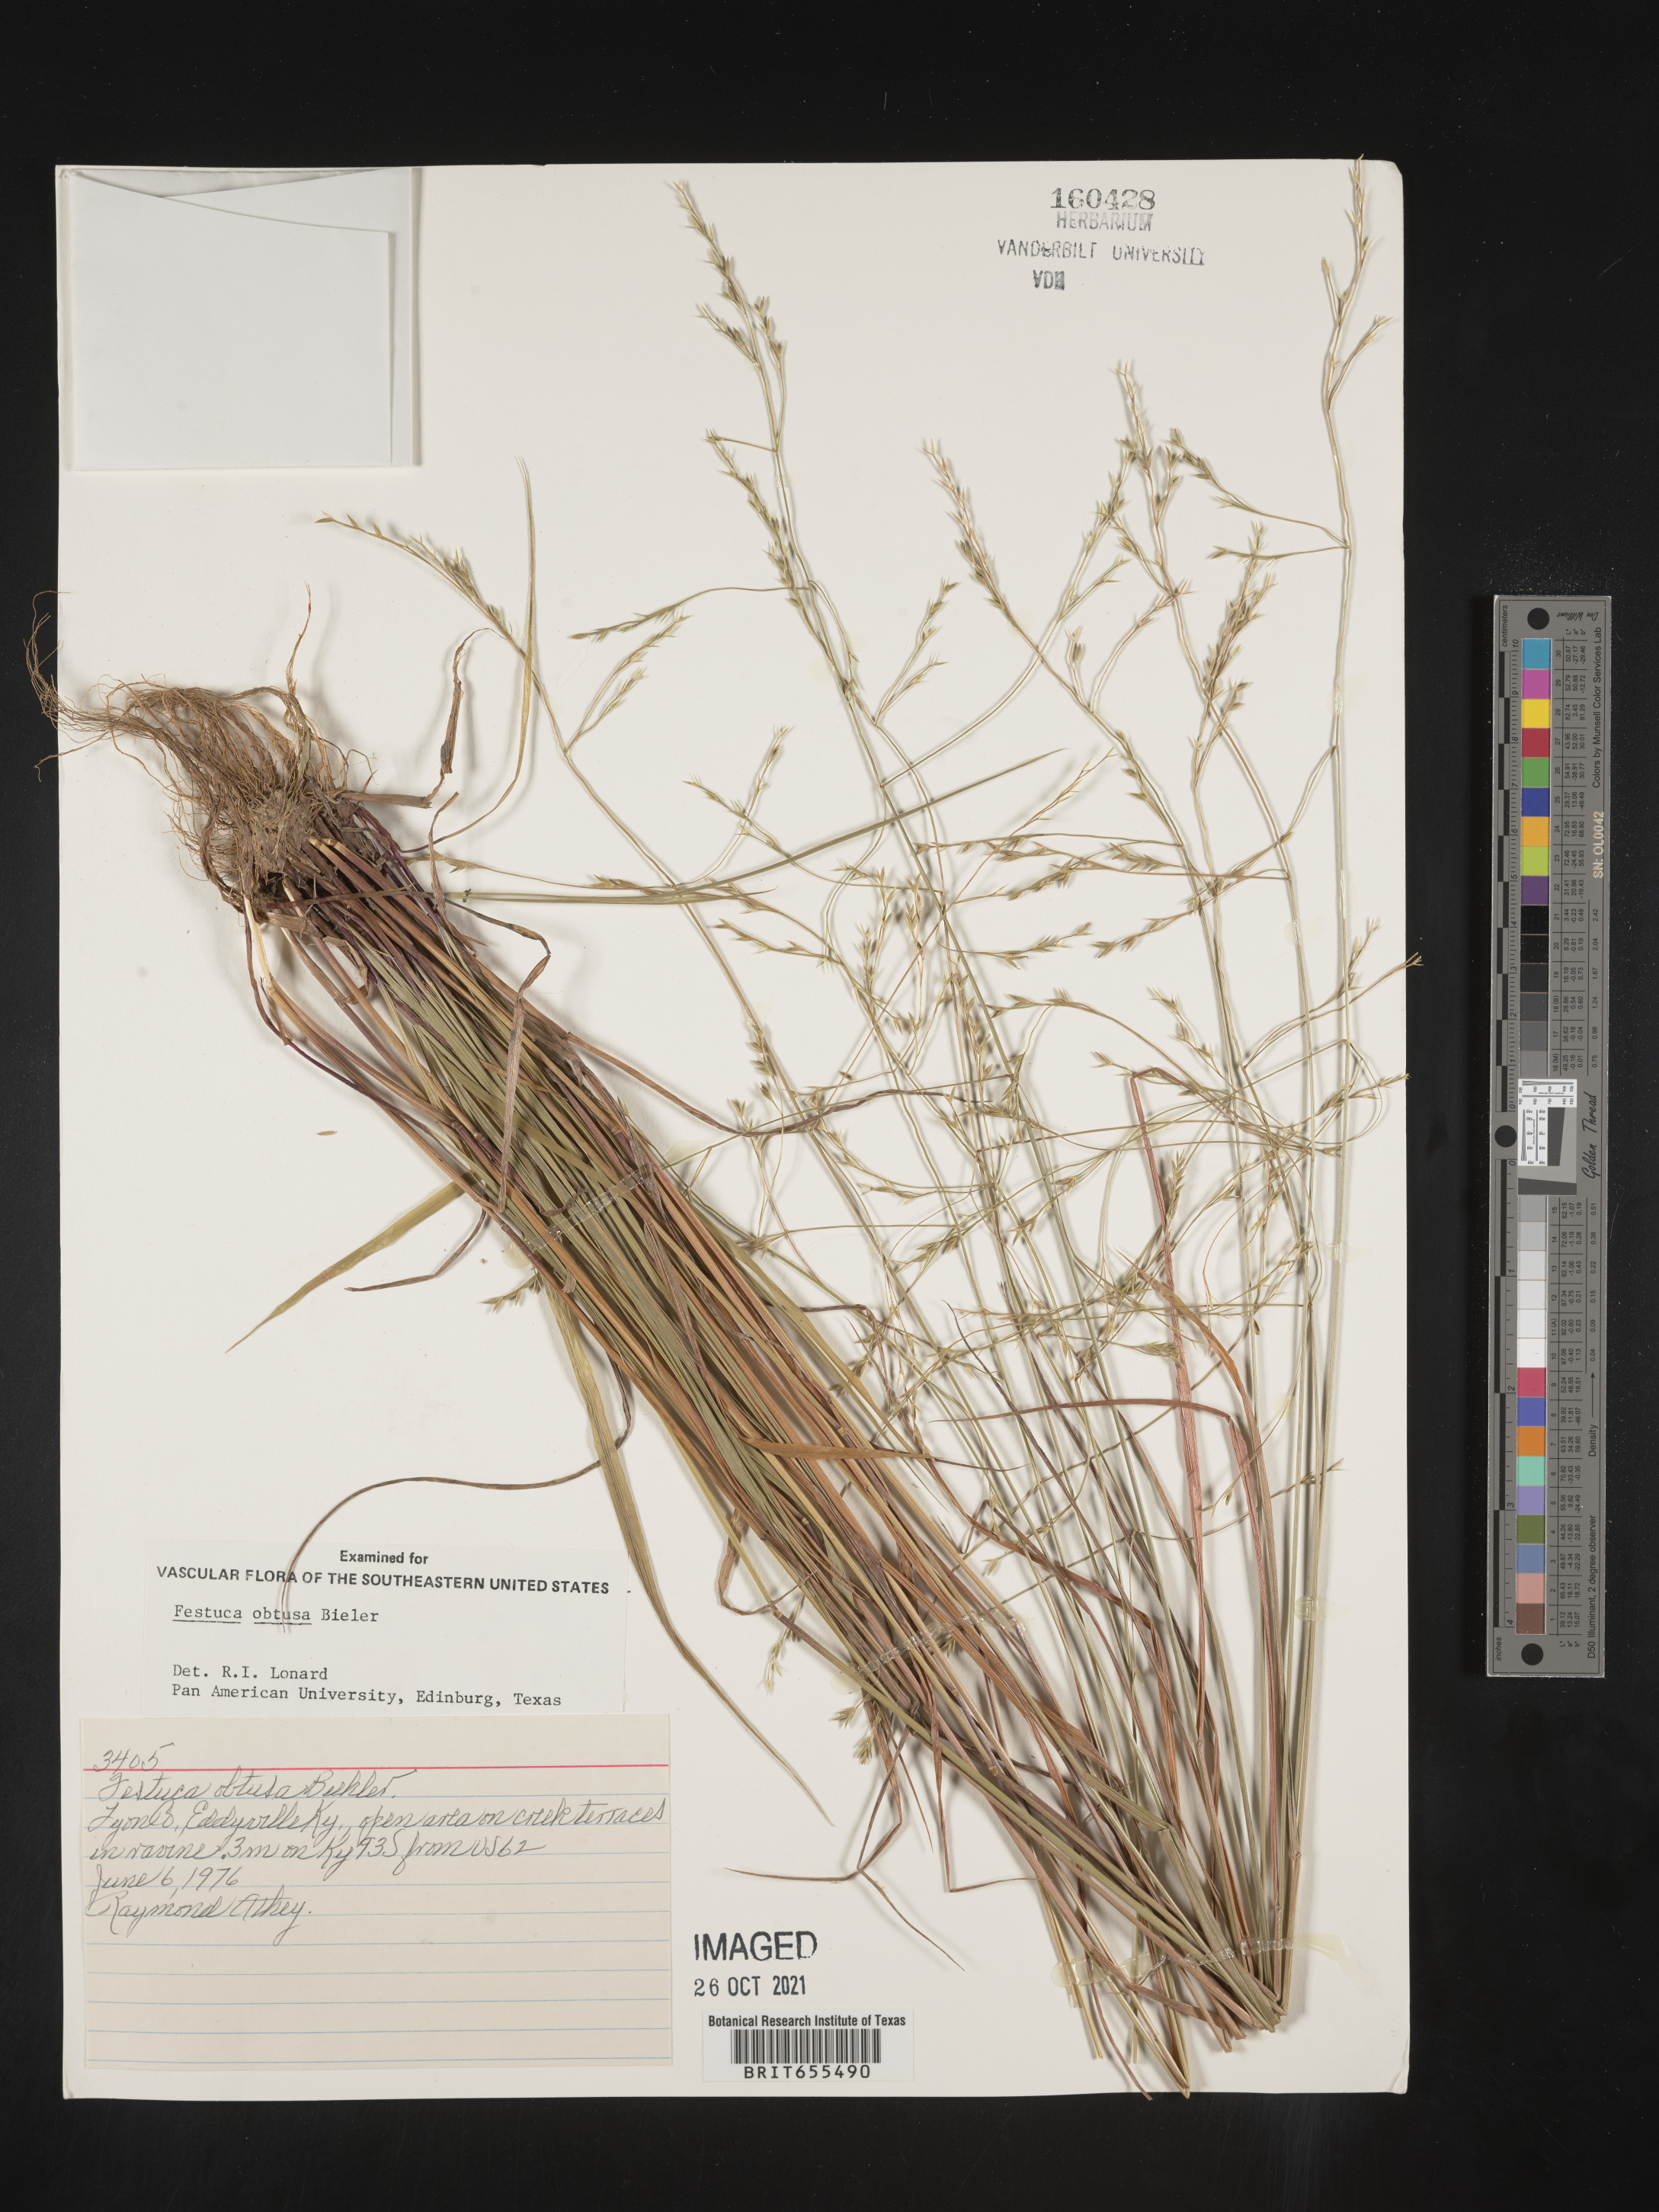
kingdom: Plantae
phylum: Tracheophyta
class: Liliopsida
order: Poales
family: Poaceae
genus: Festuca
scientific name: Festuca
